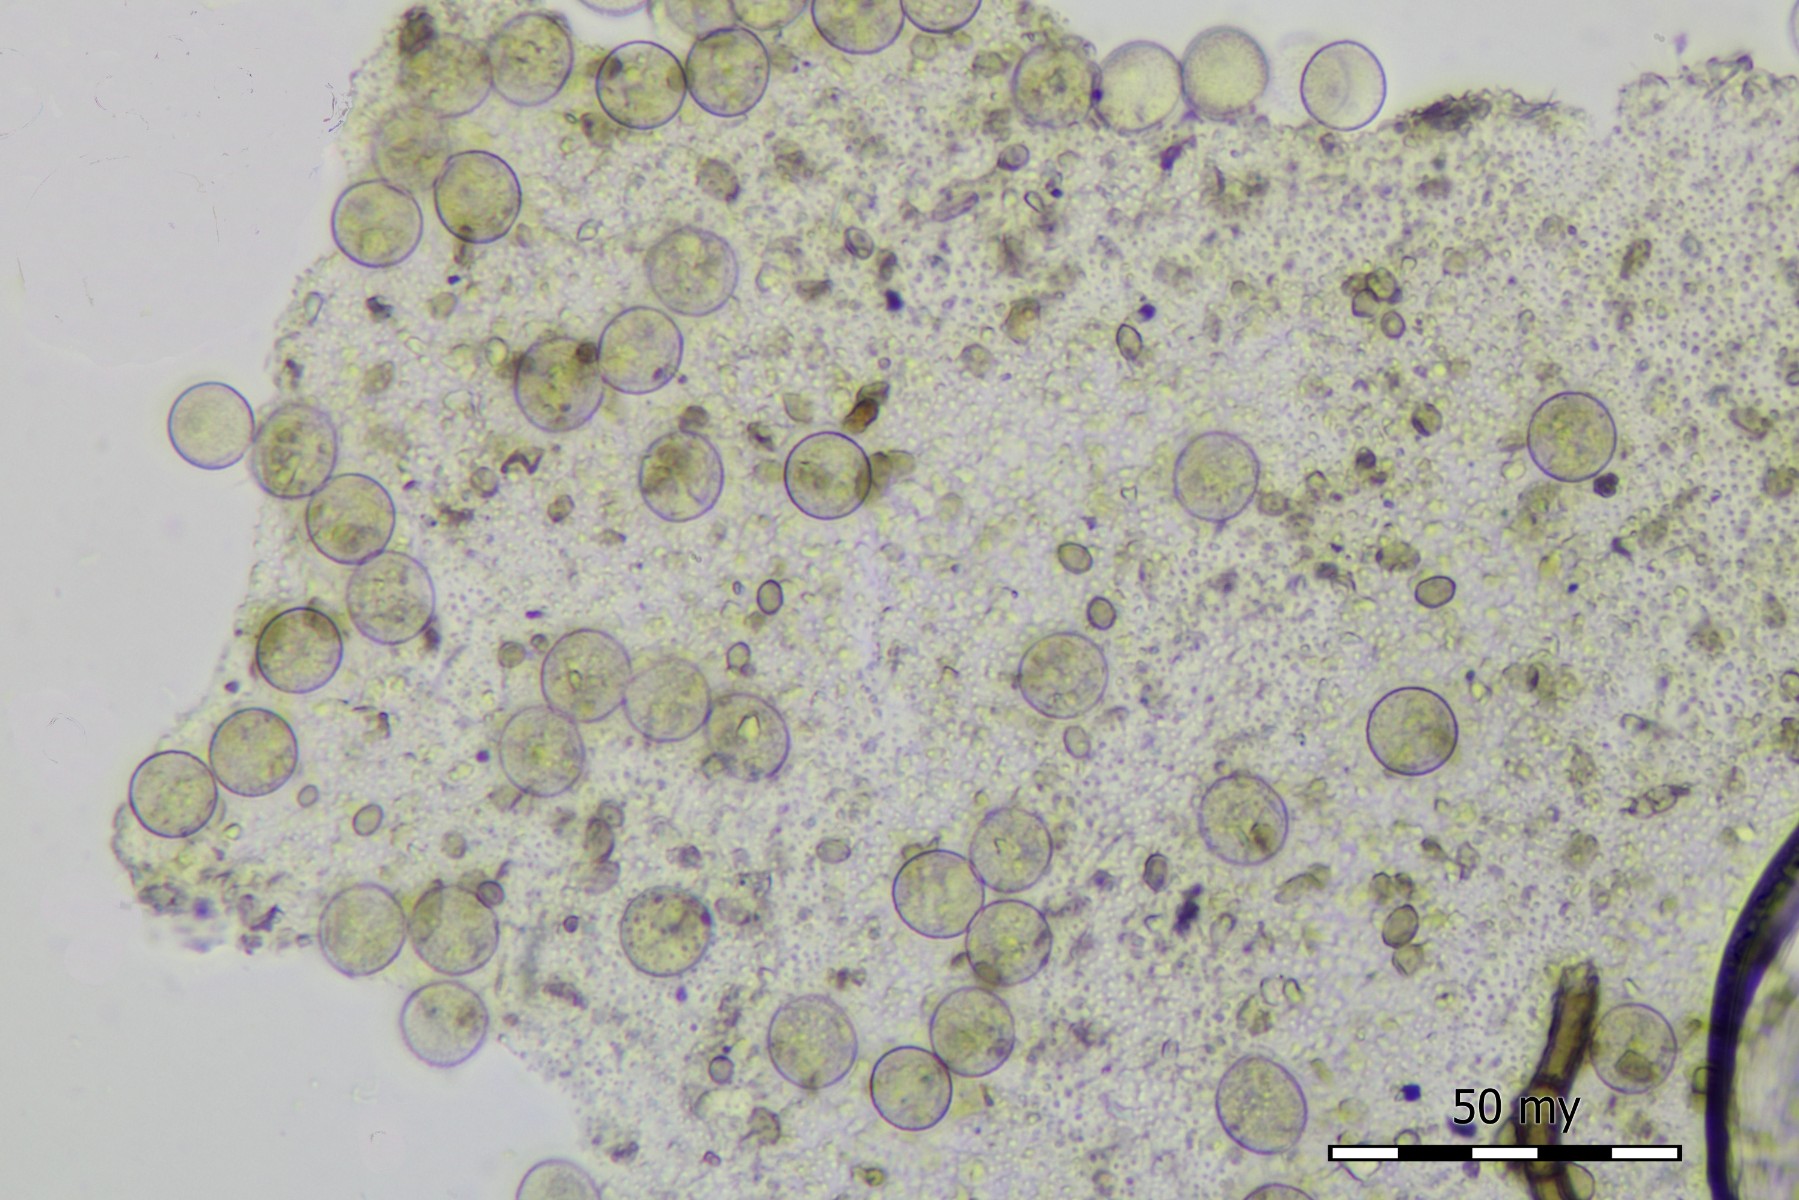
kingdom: Protozoa
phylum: Mycetozoa
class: Myxomycetes
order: Trichiales
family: Trichiaceae
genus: Gulielmina
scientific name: Gulielmina vermicularis
